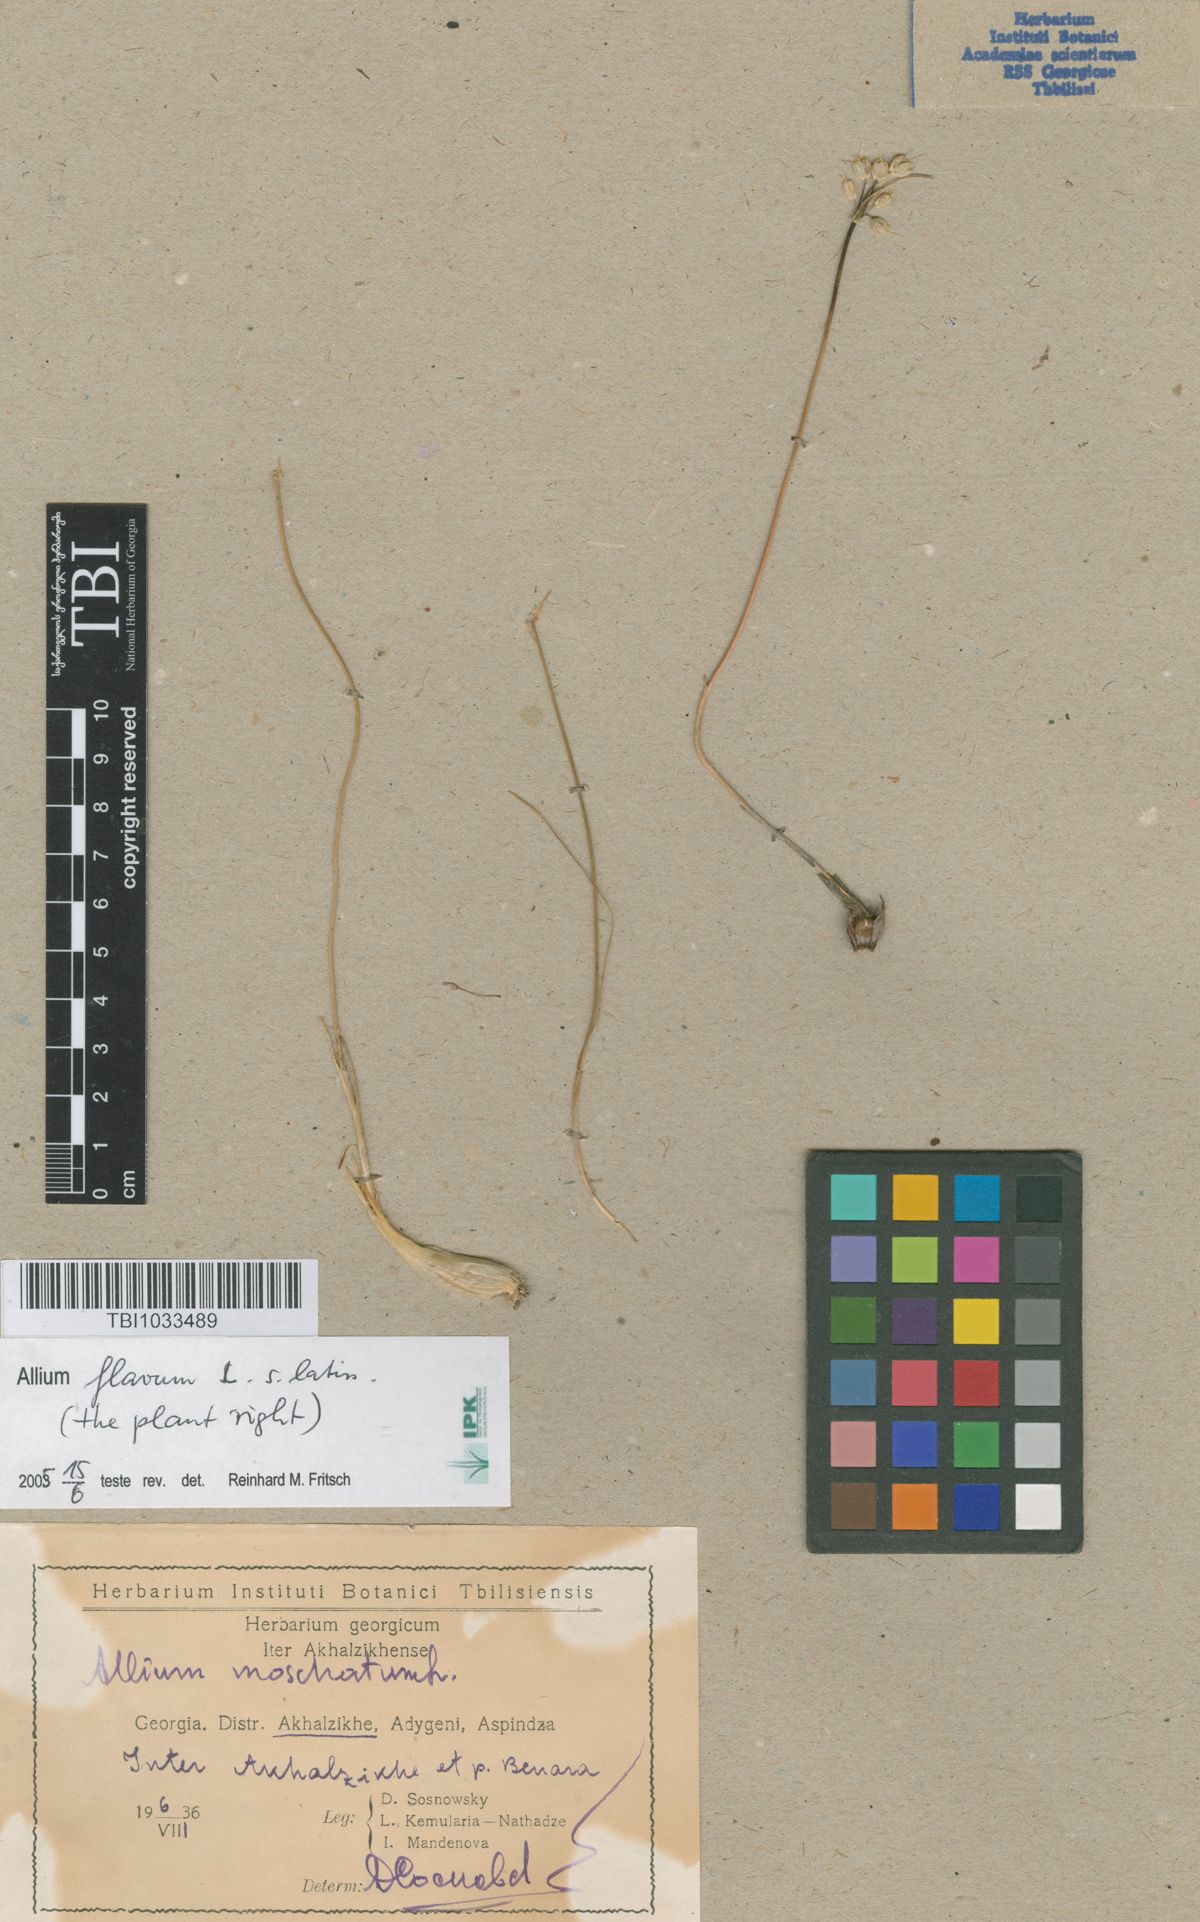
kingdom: Plantae
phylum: Tracheophyta
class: Liliopsida
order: Asparagales
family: Amaryllidaceae
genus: Allium
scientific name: Allium moschatum
